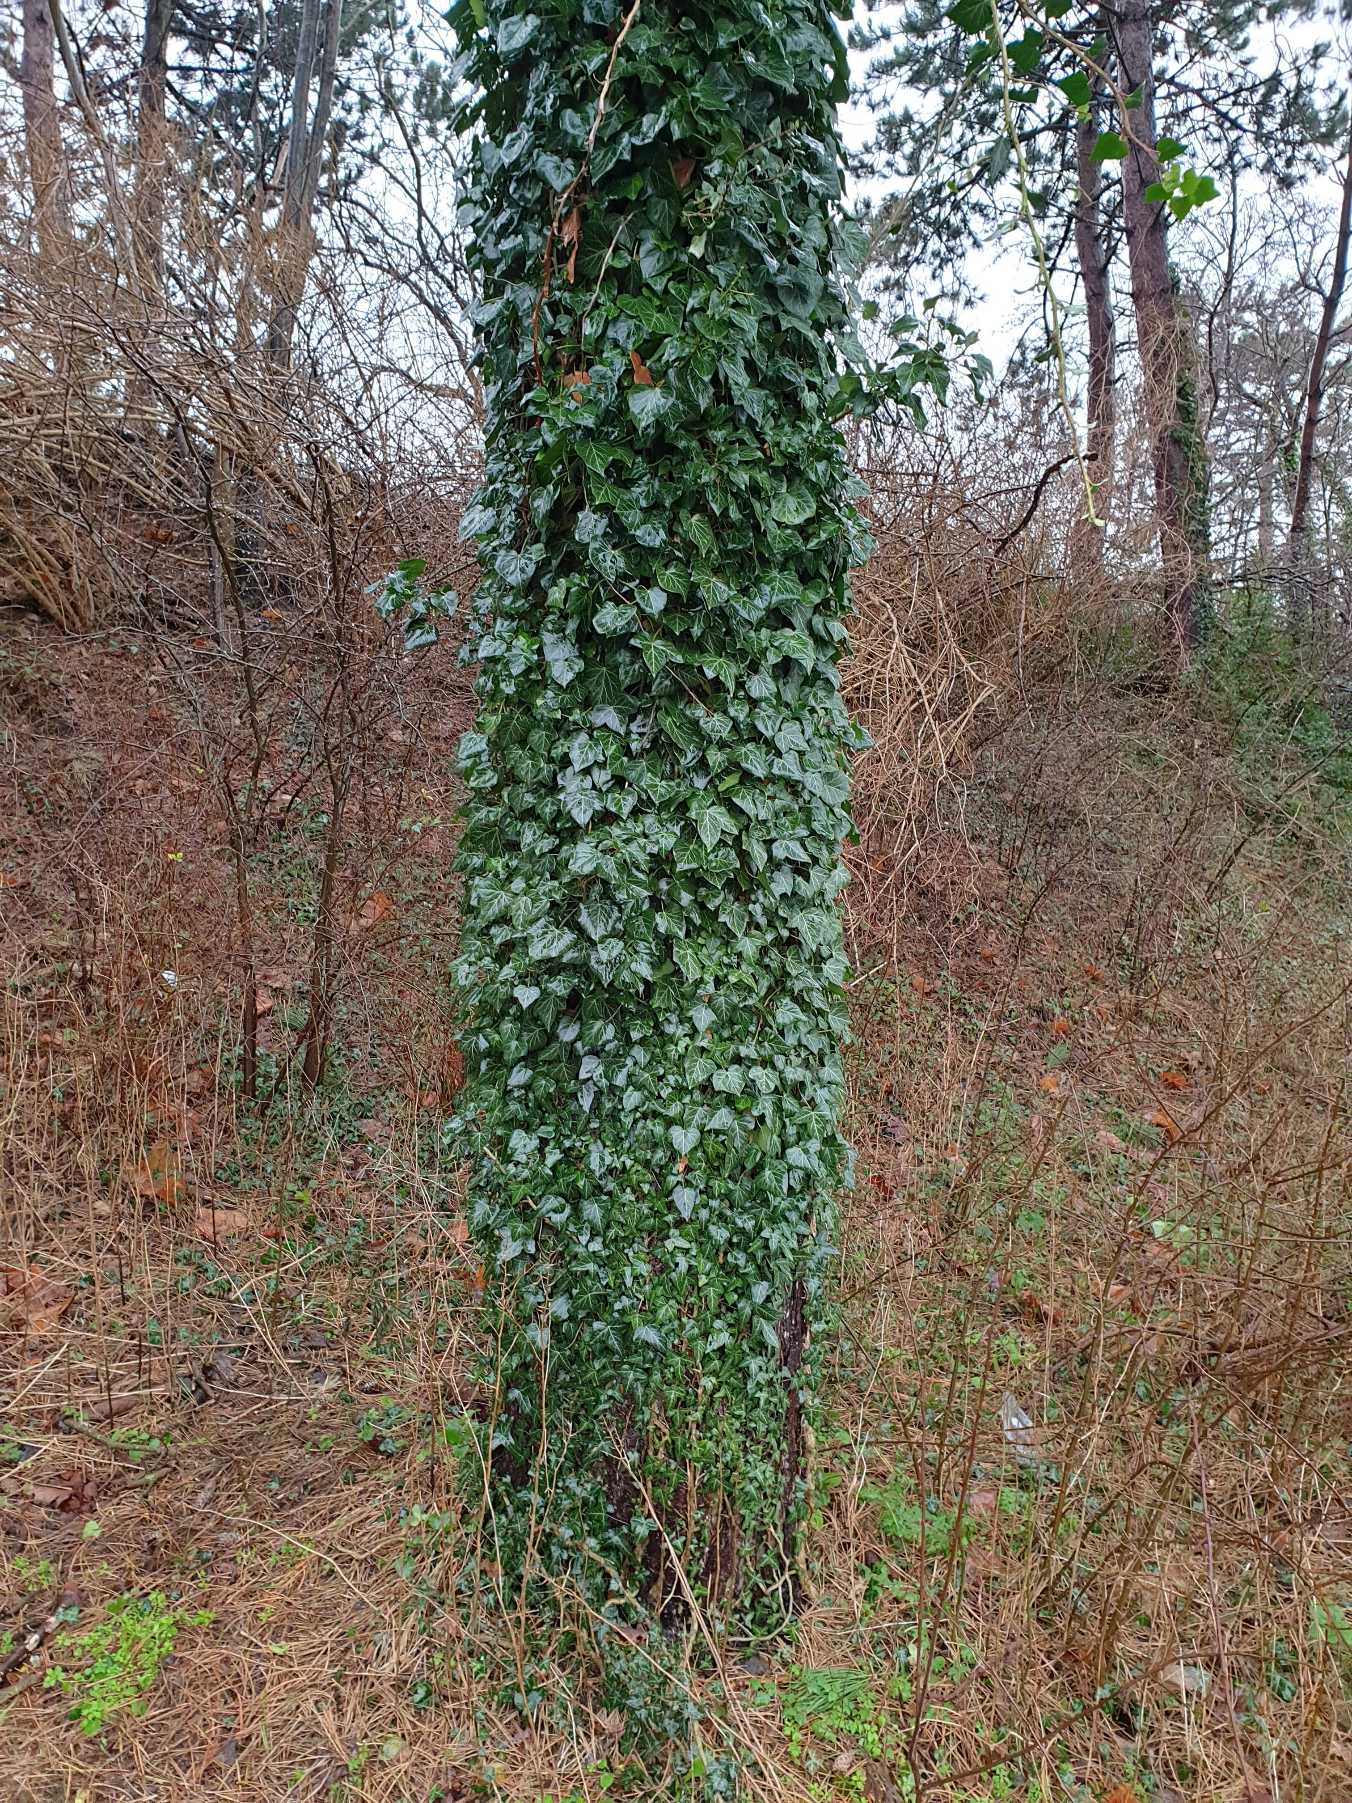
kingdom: Plantae
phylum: Tracheophyta
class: Magnoliopsida
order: Apiales
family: Araliaceae
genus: Hedera
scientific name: Hedera helix
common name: Vedbend
